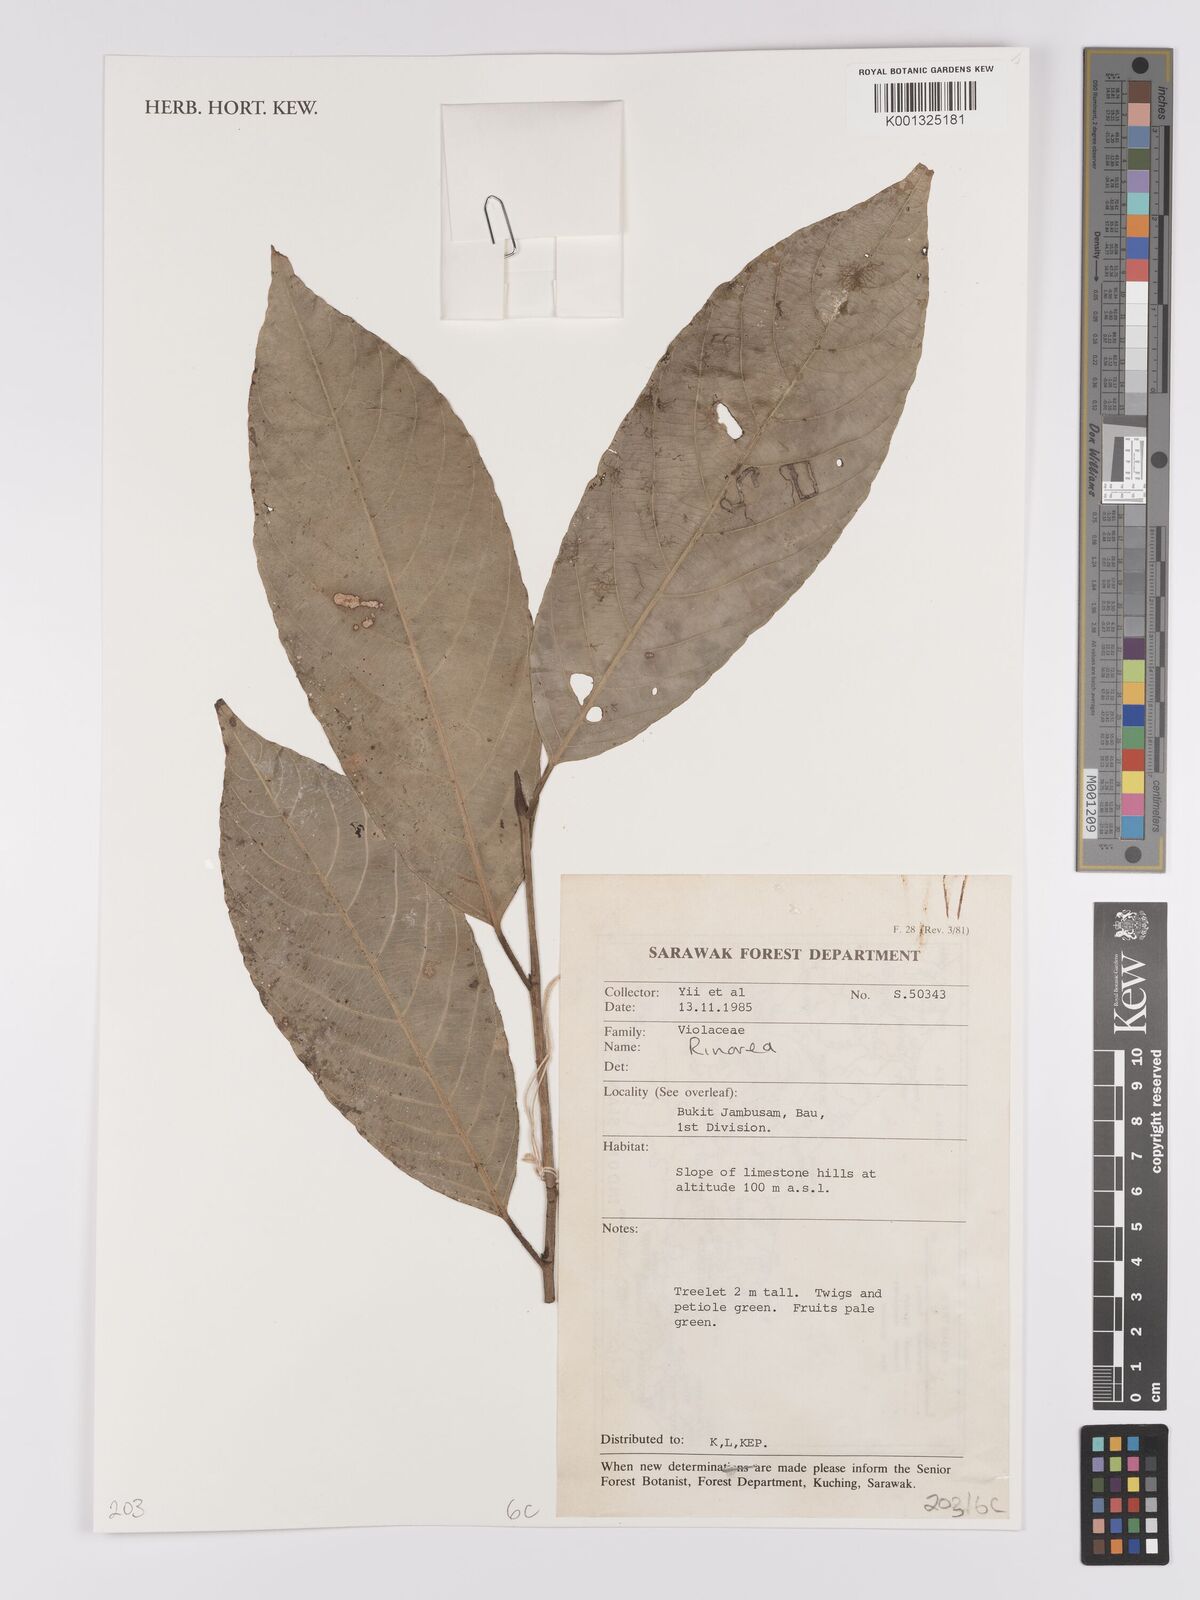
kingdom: Plantae
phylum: Tracheophyta
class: Magnoliopsida
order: Malpighiales
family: Violaceae
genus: Rinorea
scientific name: Rinorea
